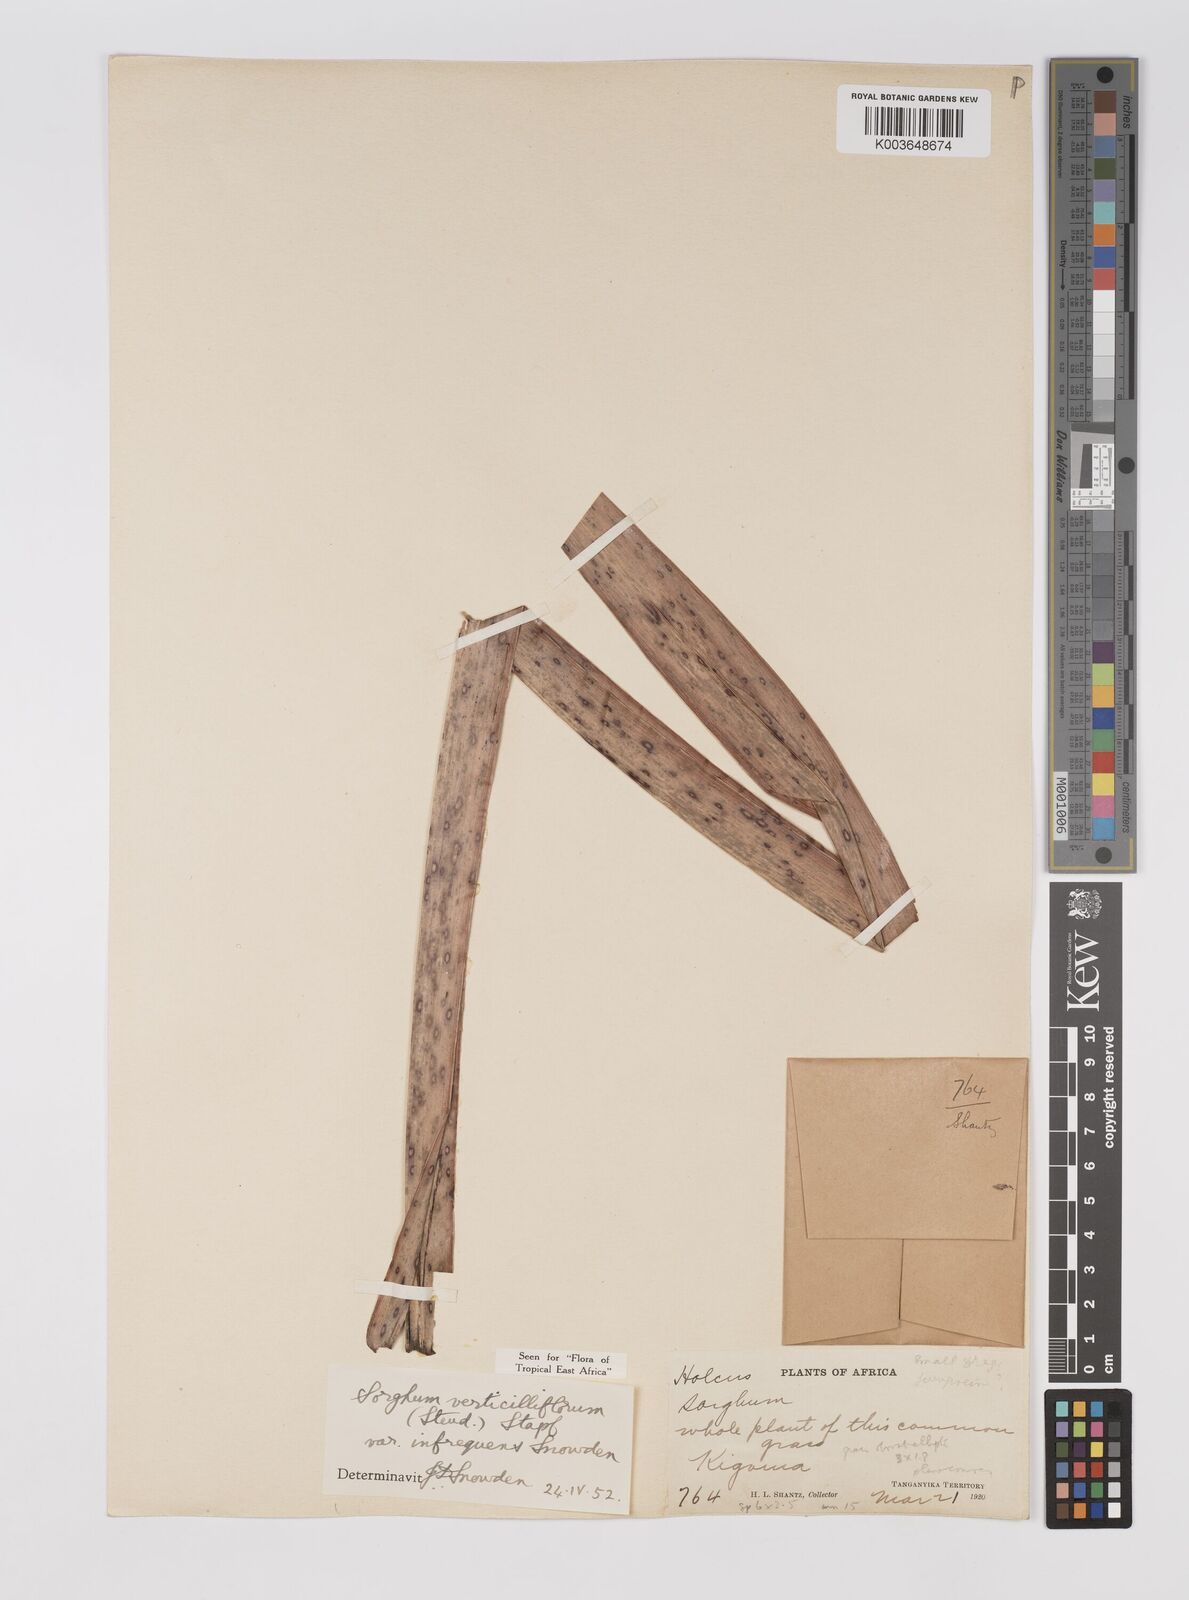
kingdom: Plantae
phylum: Tracheophyta
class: Liliopsida
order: Poales
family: Poaceae
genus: Sorghum
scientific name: Sorghum arundinaceum
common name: Sorghum
